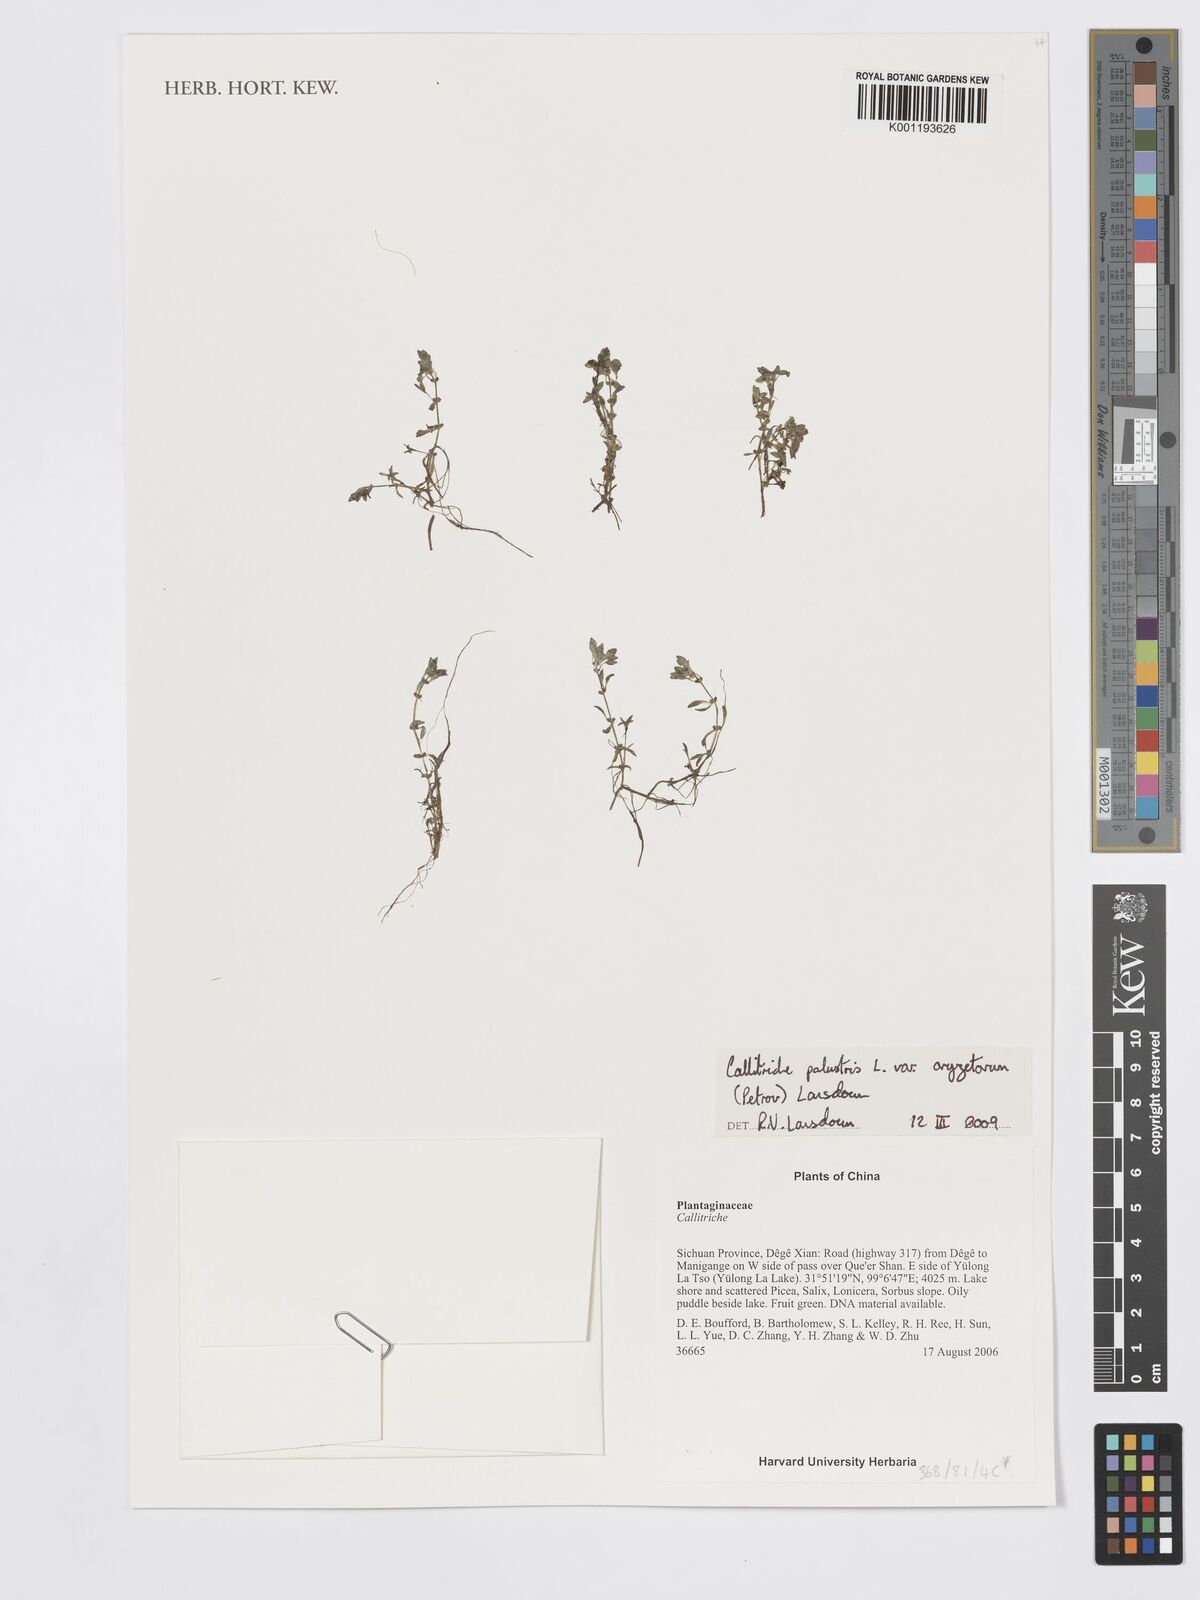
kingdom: Plantae
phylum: Tracheophyta
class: Magnoliopsida
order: Lamiales
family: Plantaginaceae
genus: Callitriche
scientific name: Callitriche palustris
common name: Spring water-starwort
